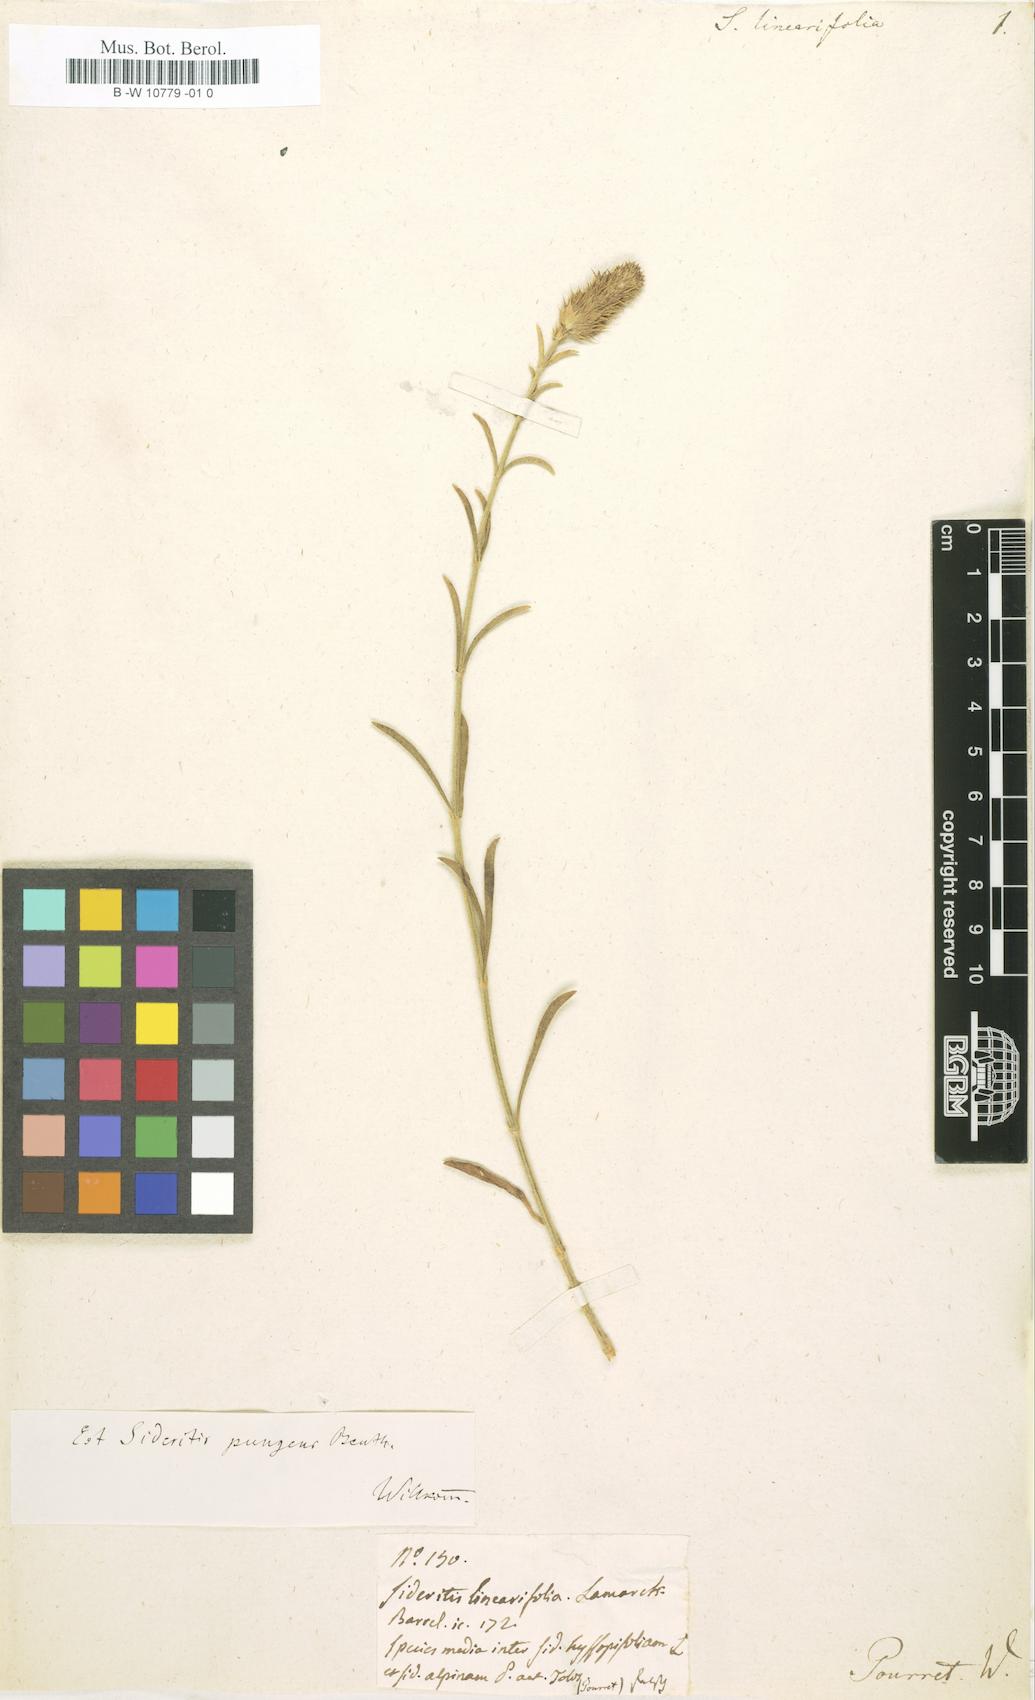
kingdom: Plantae
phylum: Tracheophyta
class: Magnoliopsida
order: Lamiales
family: Lamiaceae
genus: Sideritis
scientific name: Sideritis linearifolia
